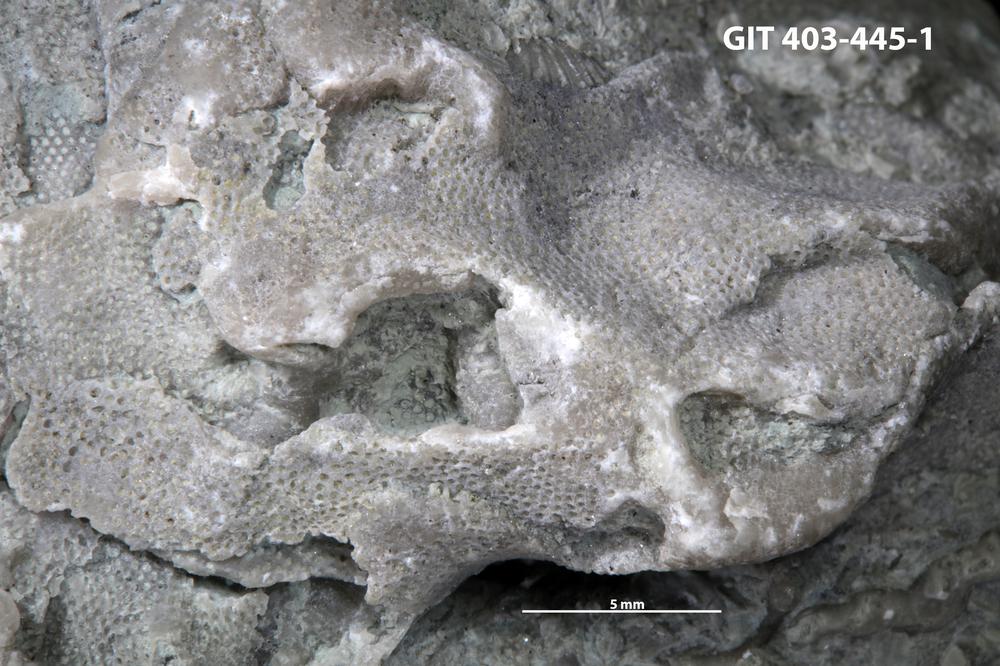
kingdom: Animalia
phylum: Bryozoa
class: Stenolaemata
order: Cystoporida
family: Fistuliporidae
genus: Fistulipora
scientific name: Fistulipora przhidolensis
